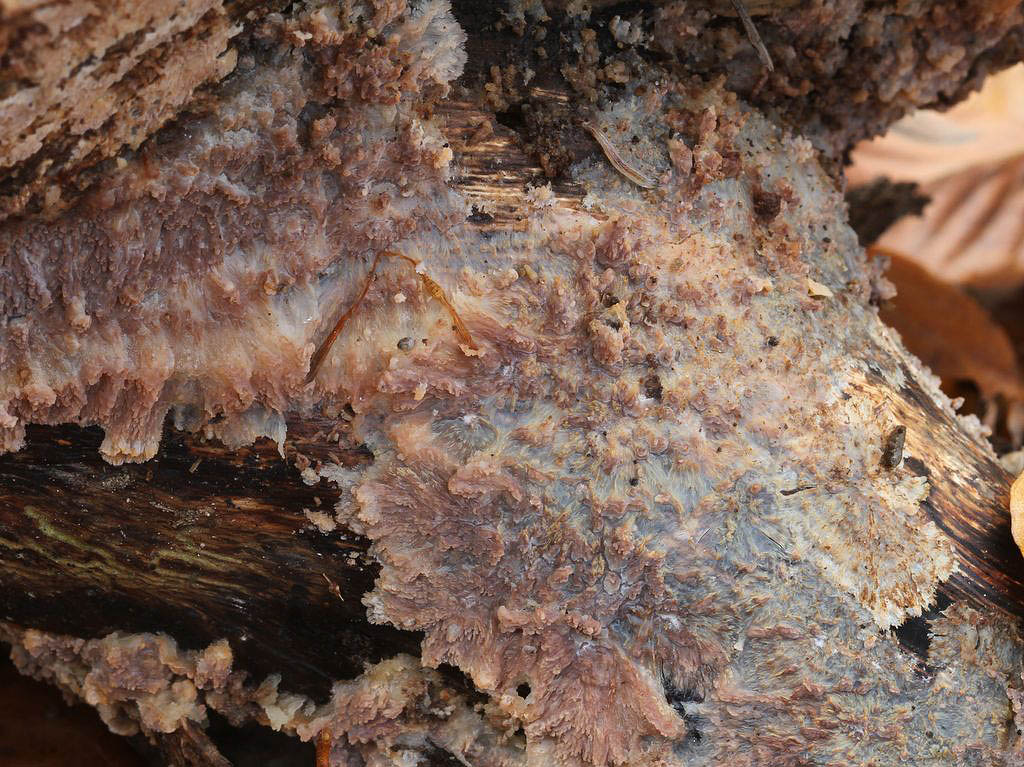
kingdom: Fungi
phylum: Basidiomycota
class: Agaricomycetes
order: Polyporales
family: Meruliaceae
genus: Phlebia
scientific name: Phlebia radiata
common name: stråle-åresvamp
